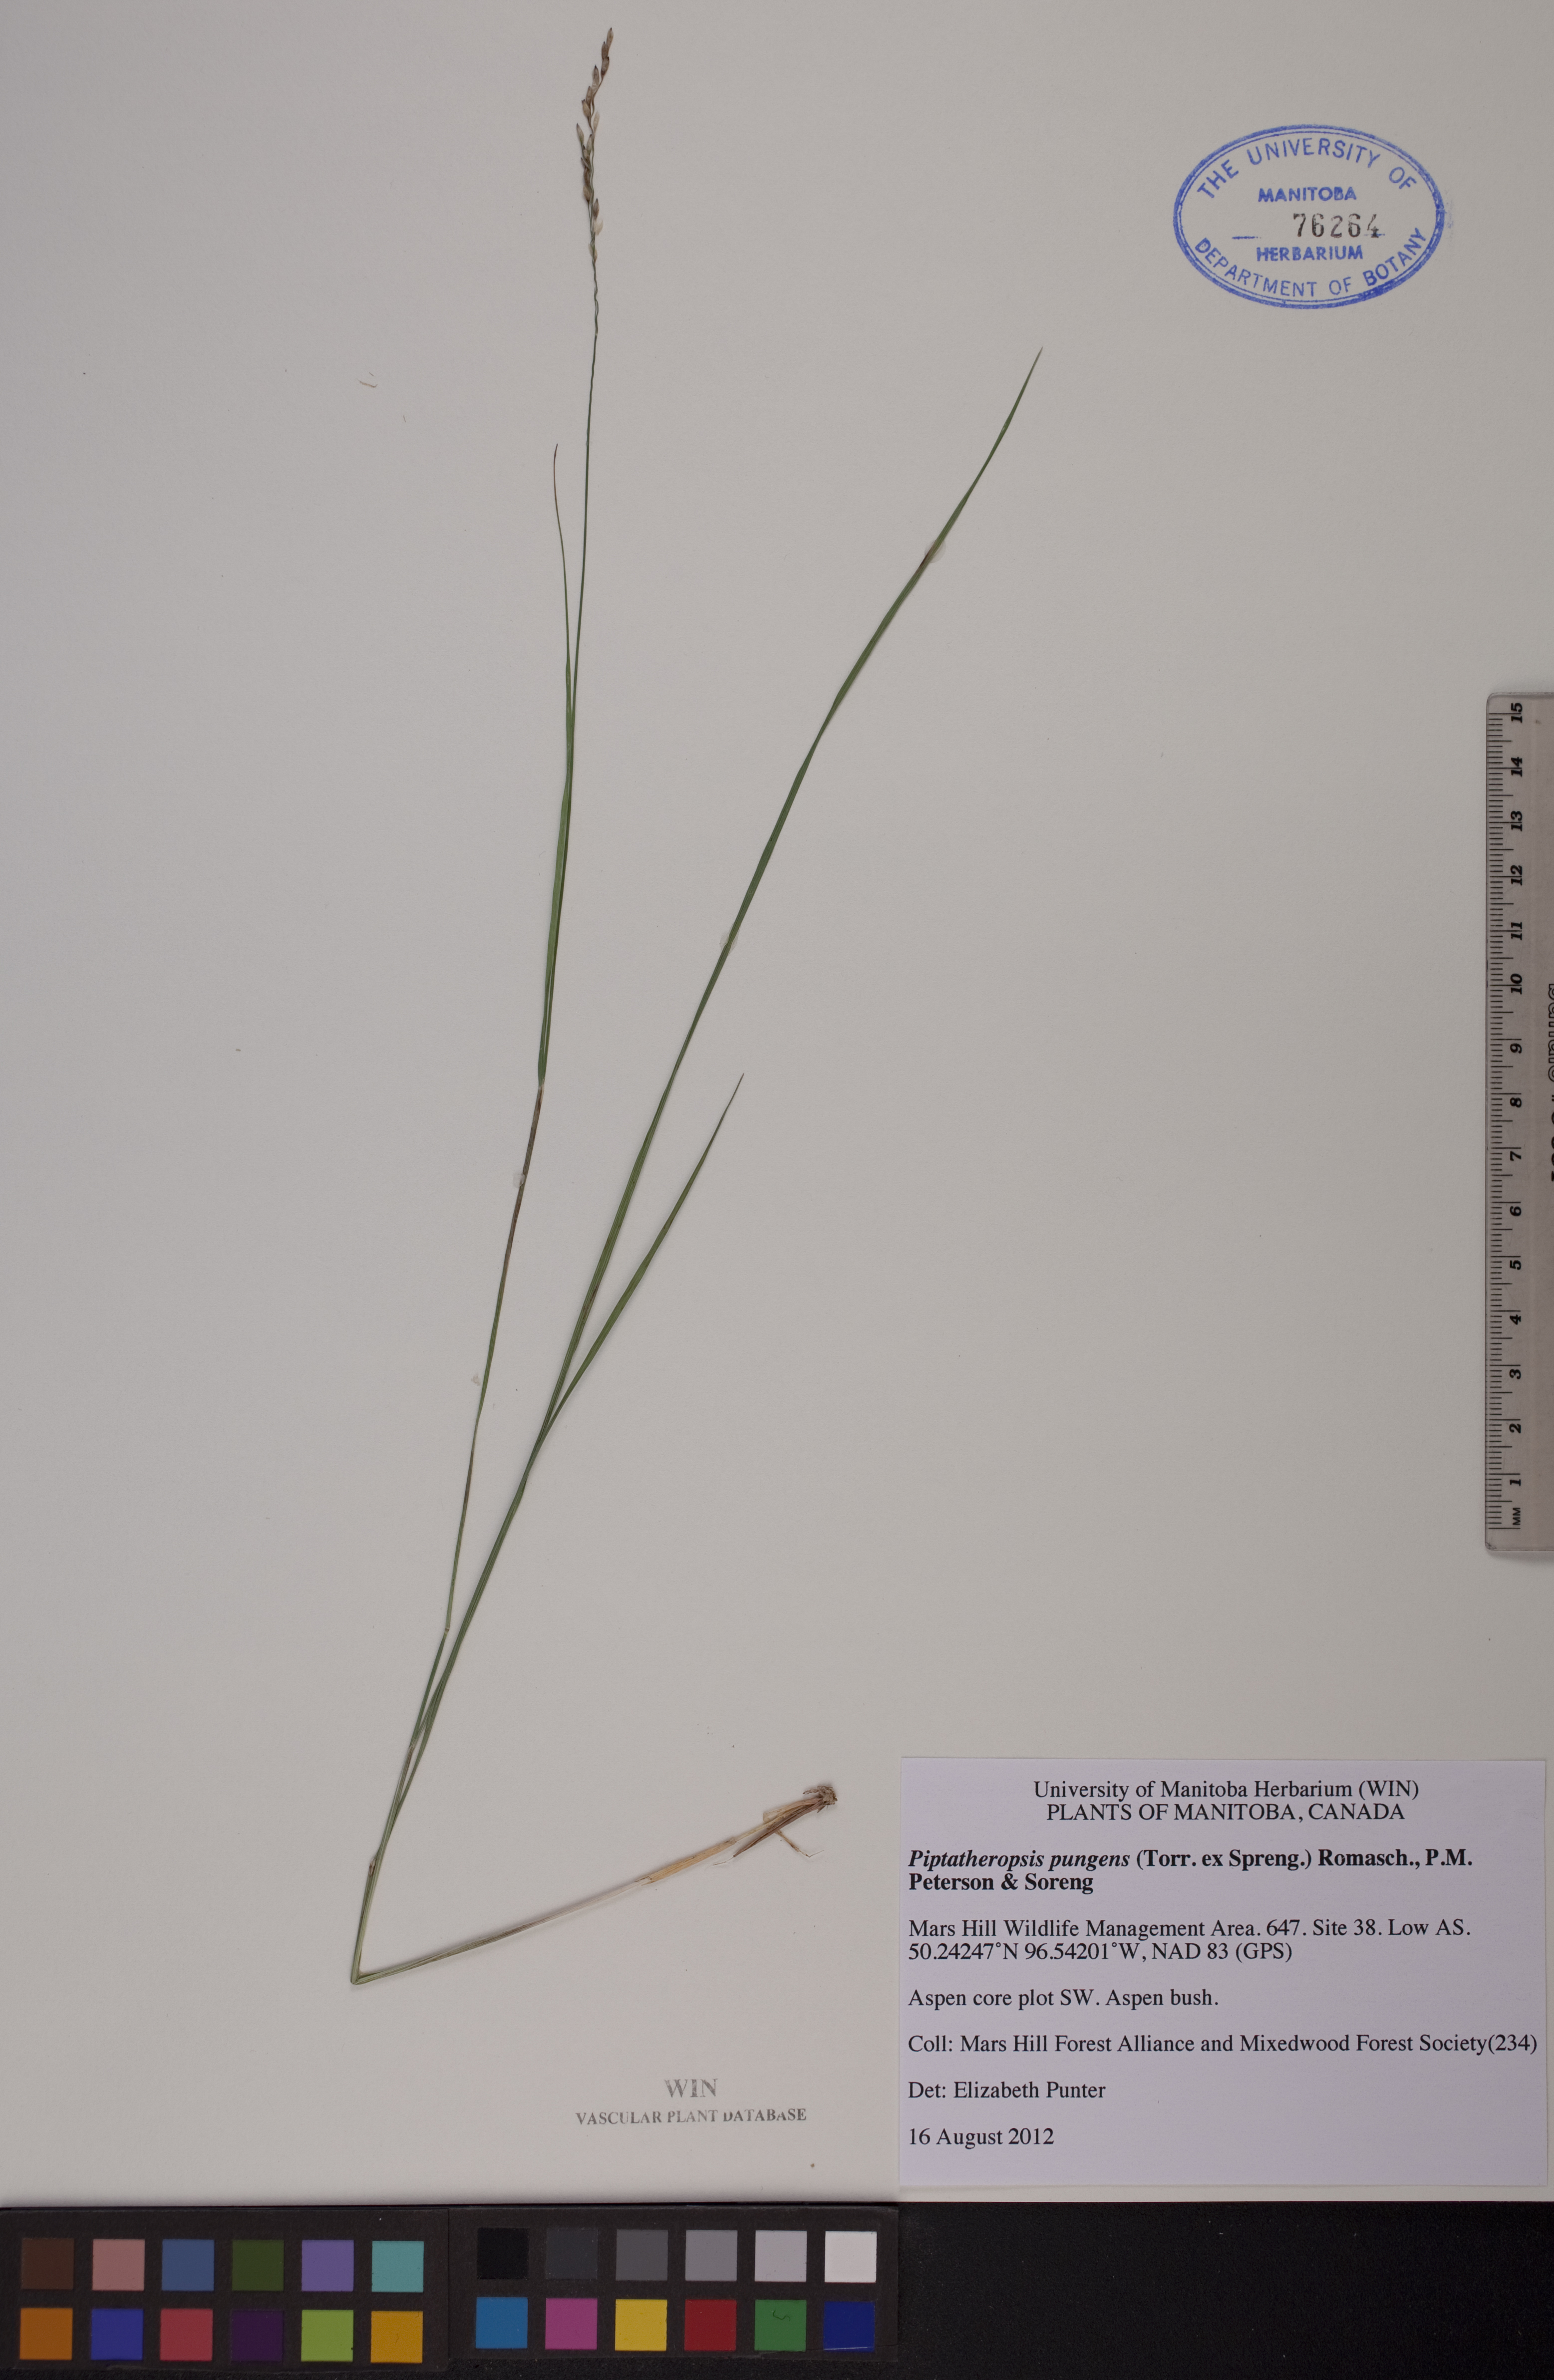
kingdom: Plantae
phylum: Tracheophyta
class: Liliopsida
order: Poales
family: Poaceae
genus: Piptatheropsis
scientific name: Piptatheropsis pungens
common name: Northern ricegrass
